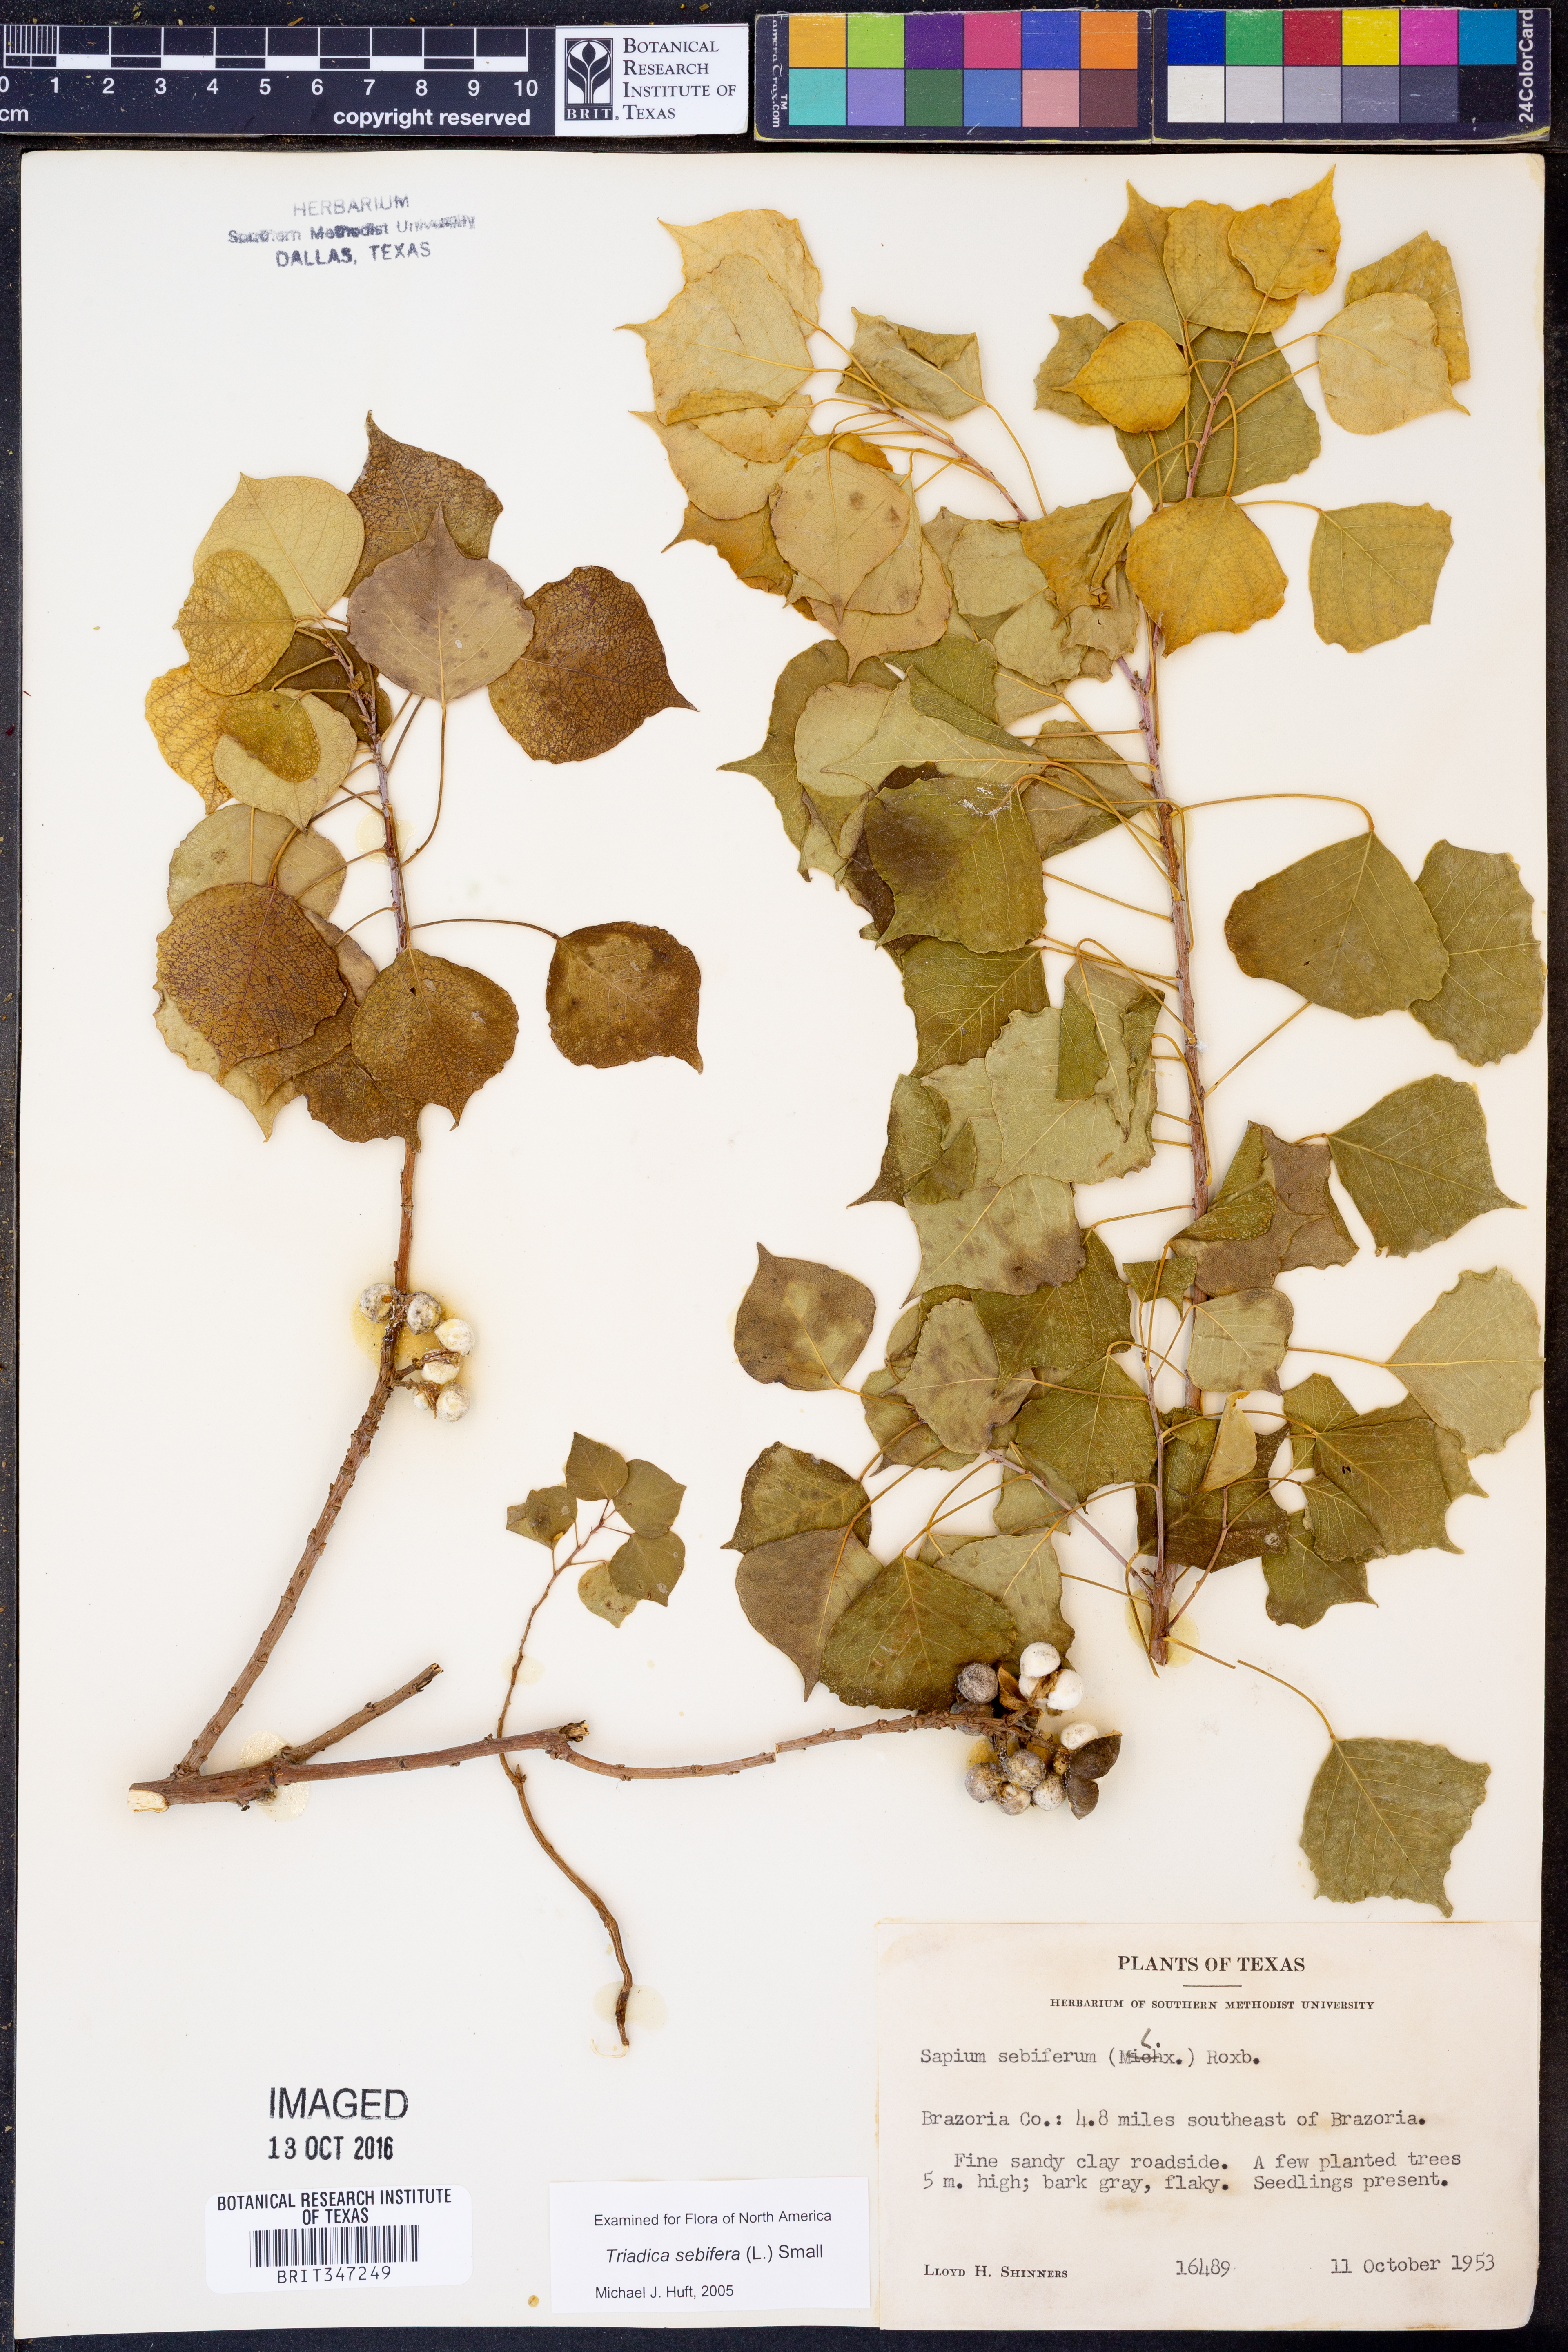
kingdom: Plantae
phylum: Tracheophyta
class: Magnoliopsida
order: Malpighiales
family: Euphorbiaceae
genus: Triadica
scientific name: Triadica sebifera
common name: Chinese tallow
